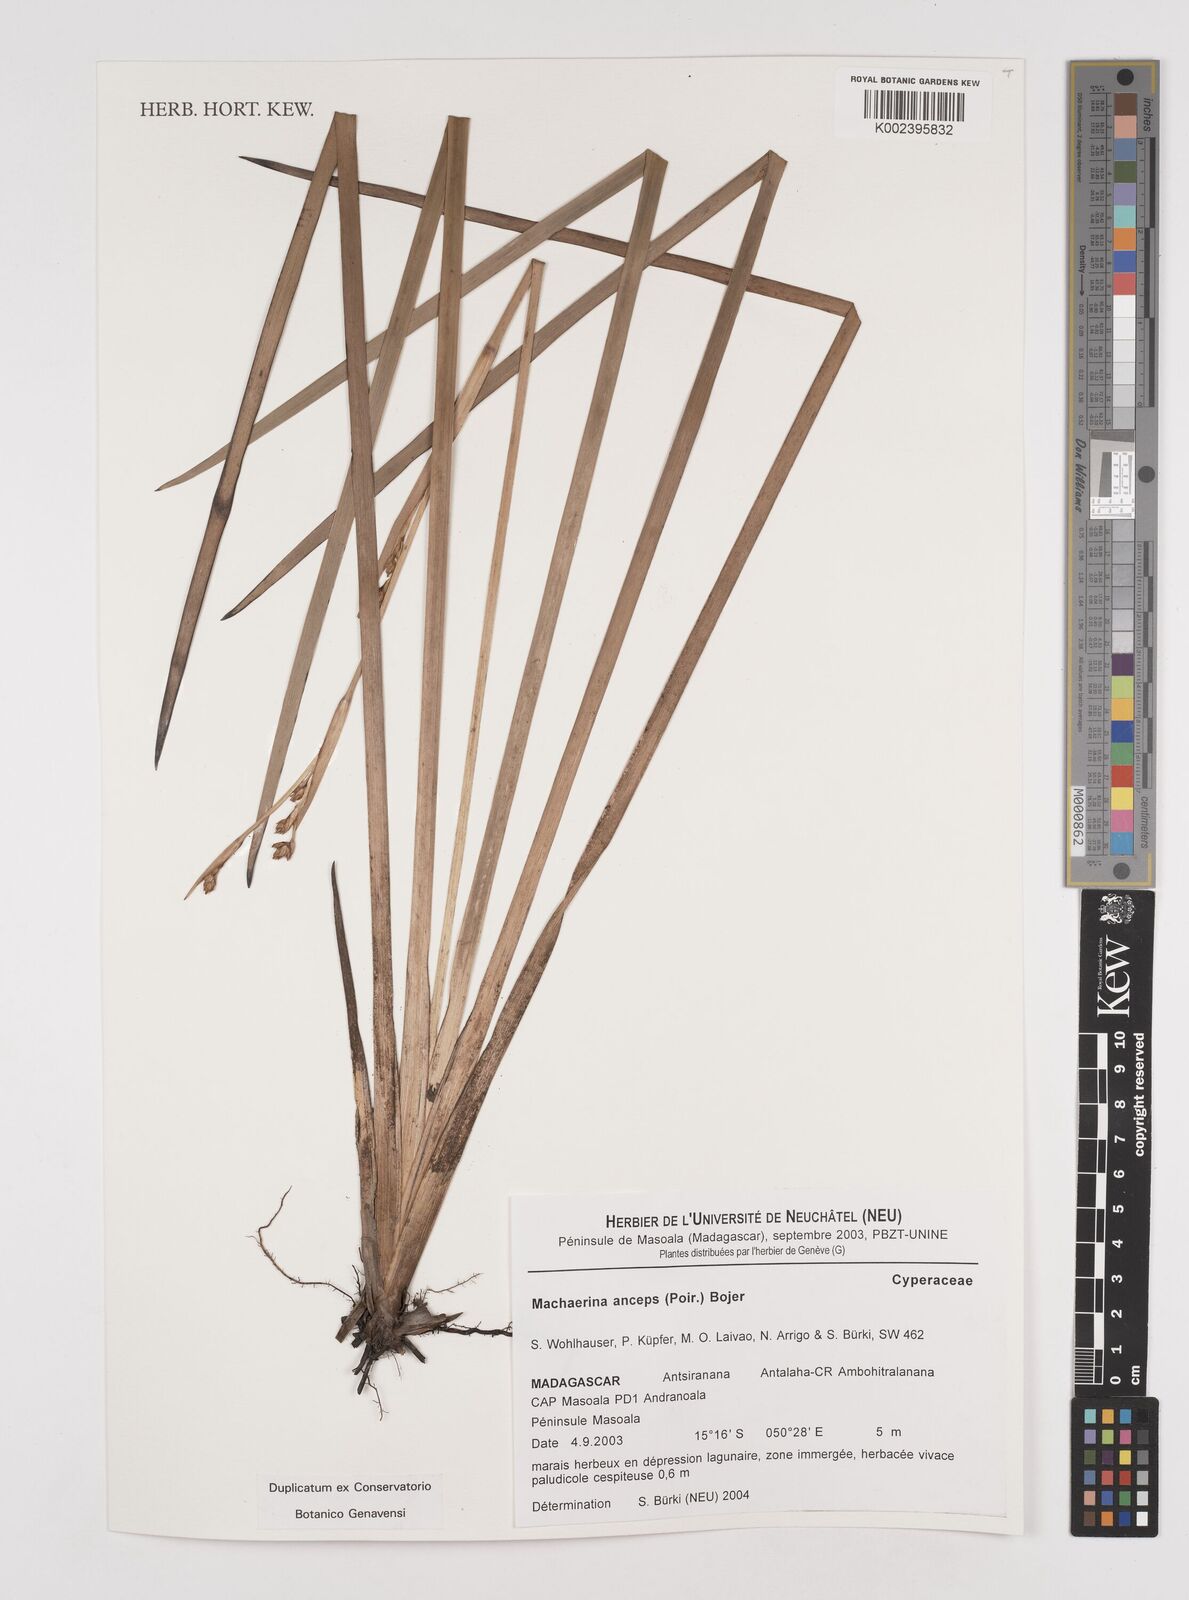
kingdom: Plantae
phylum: Tracheophyta
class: Liliopsida
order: Poales
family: Cyperaceae
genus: Machaerina
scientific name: Machaerina anceps
